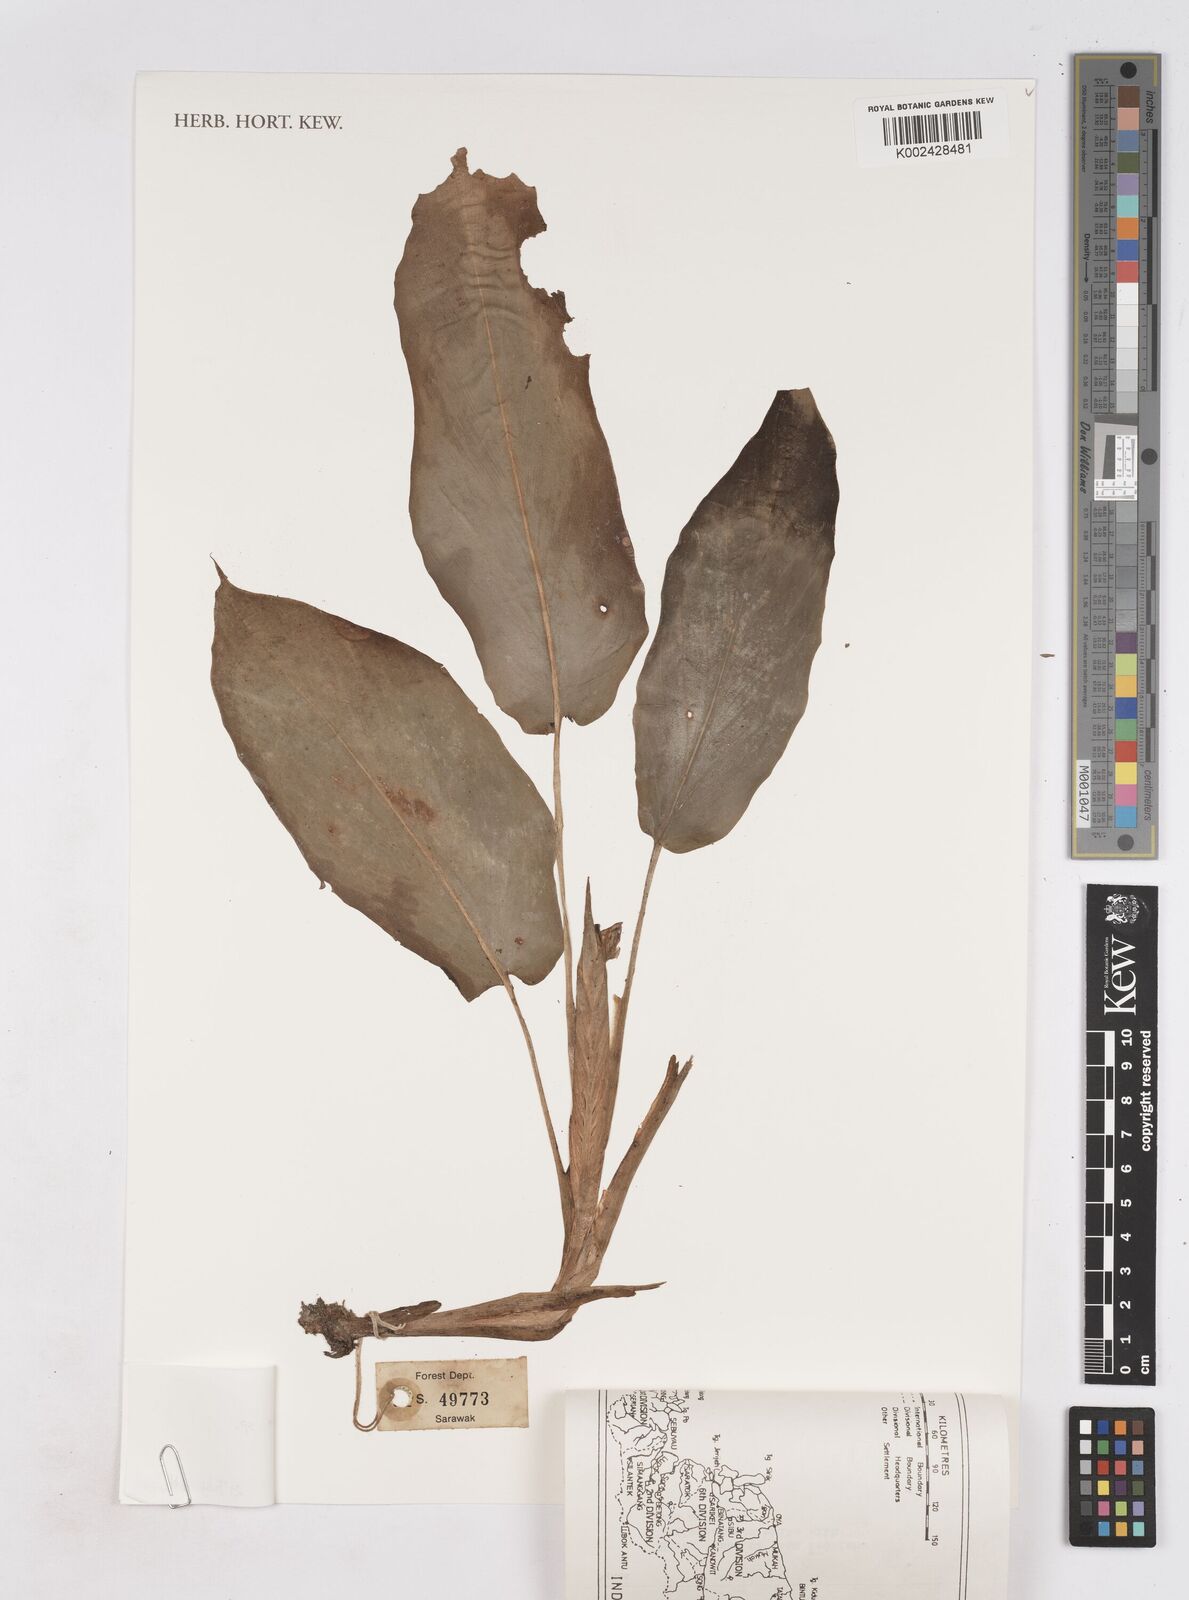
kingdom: Plantae
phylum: Tracheophyta
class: Liliopsida
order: Zingiberales
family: Zingiberaceae
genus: Boesenbergia
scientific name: Boesenbergia
